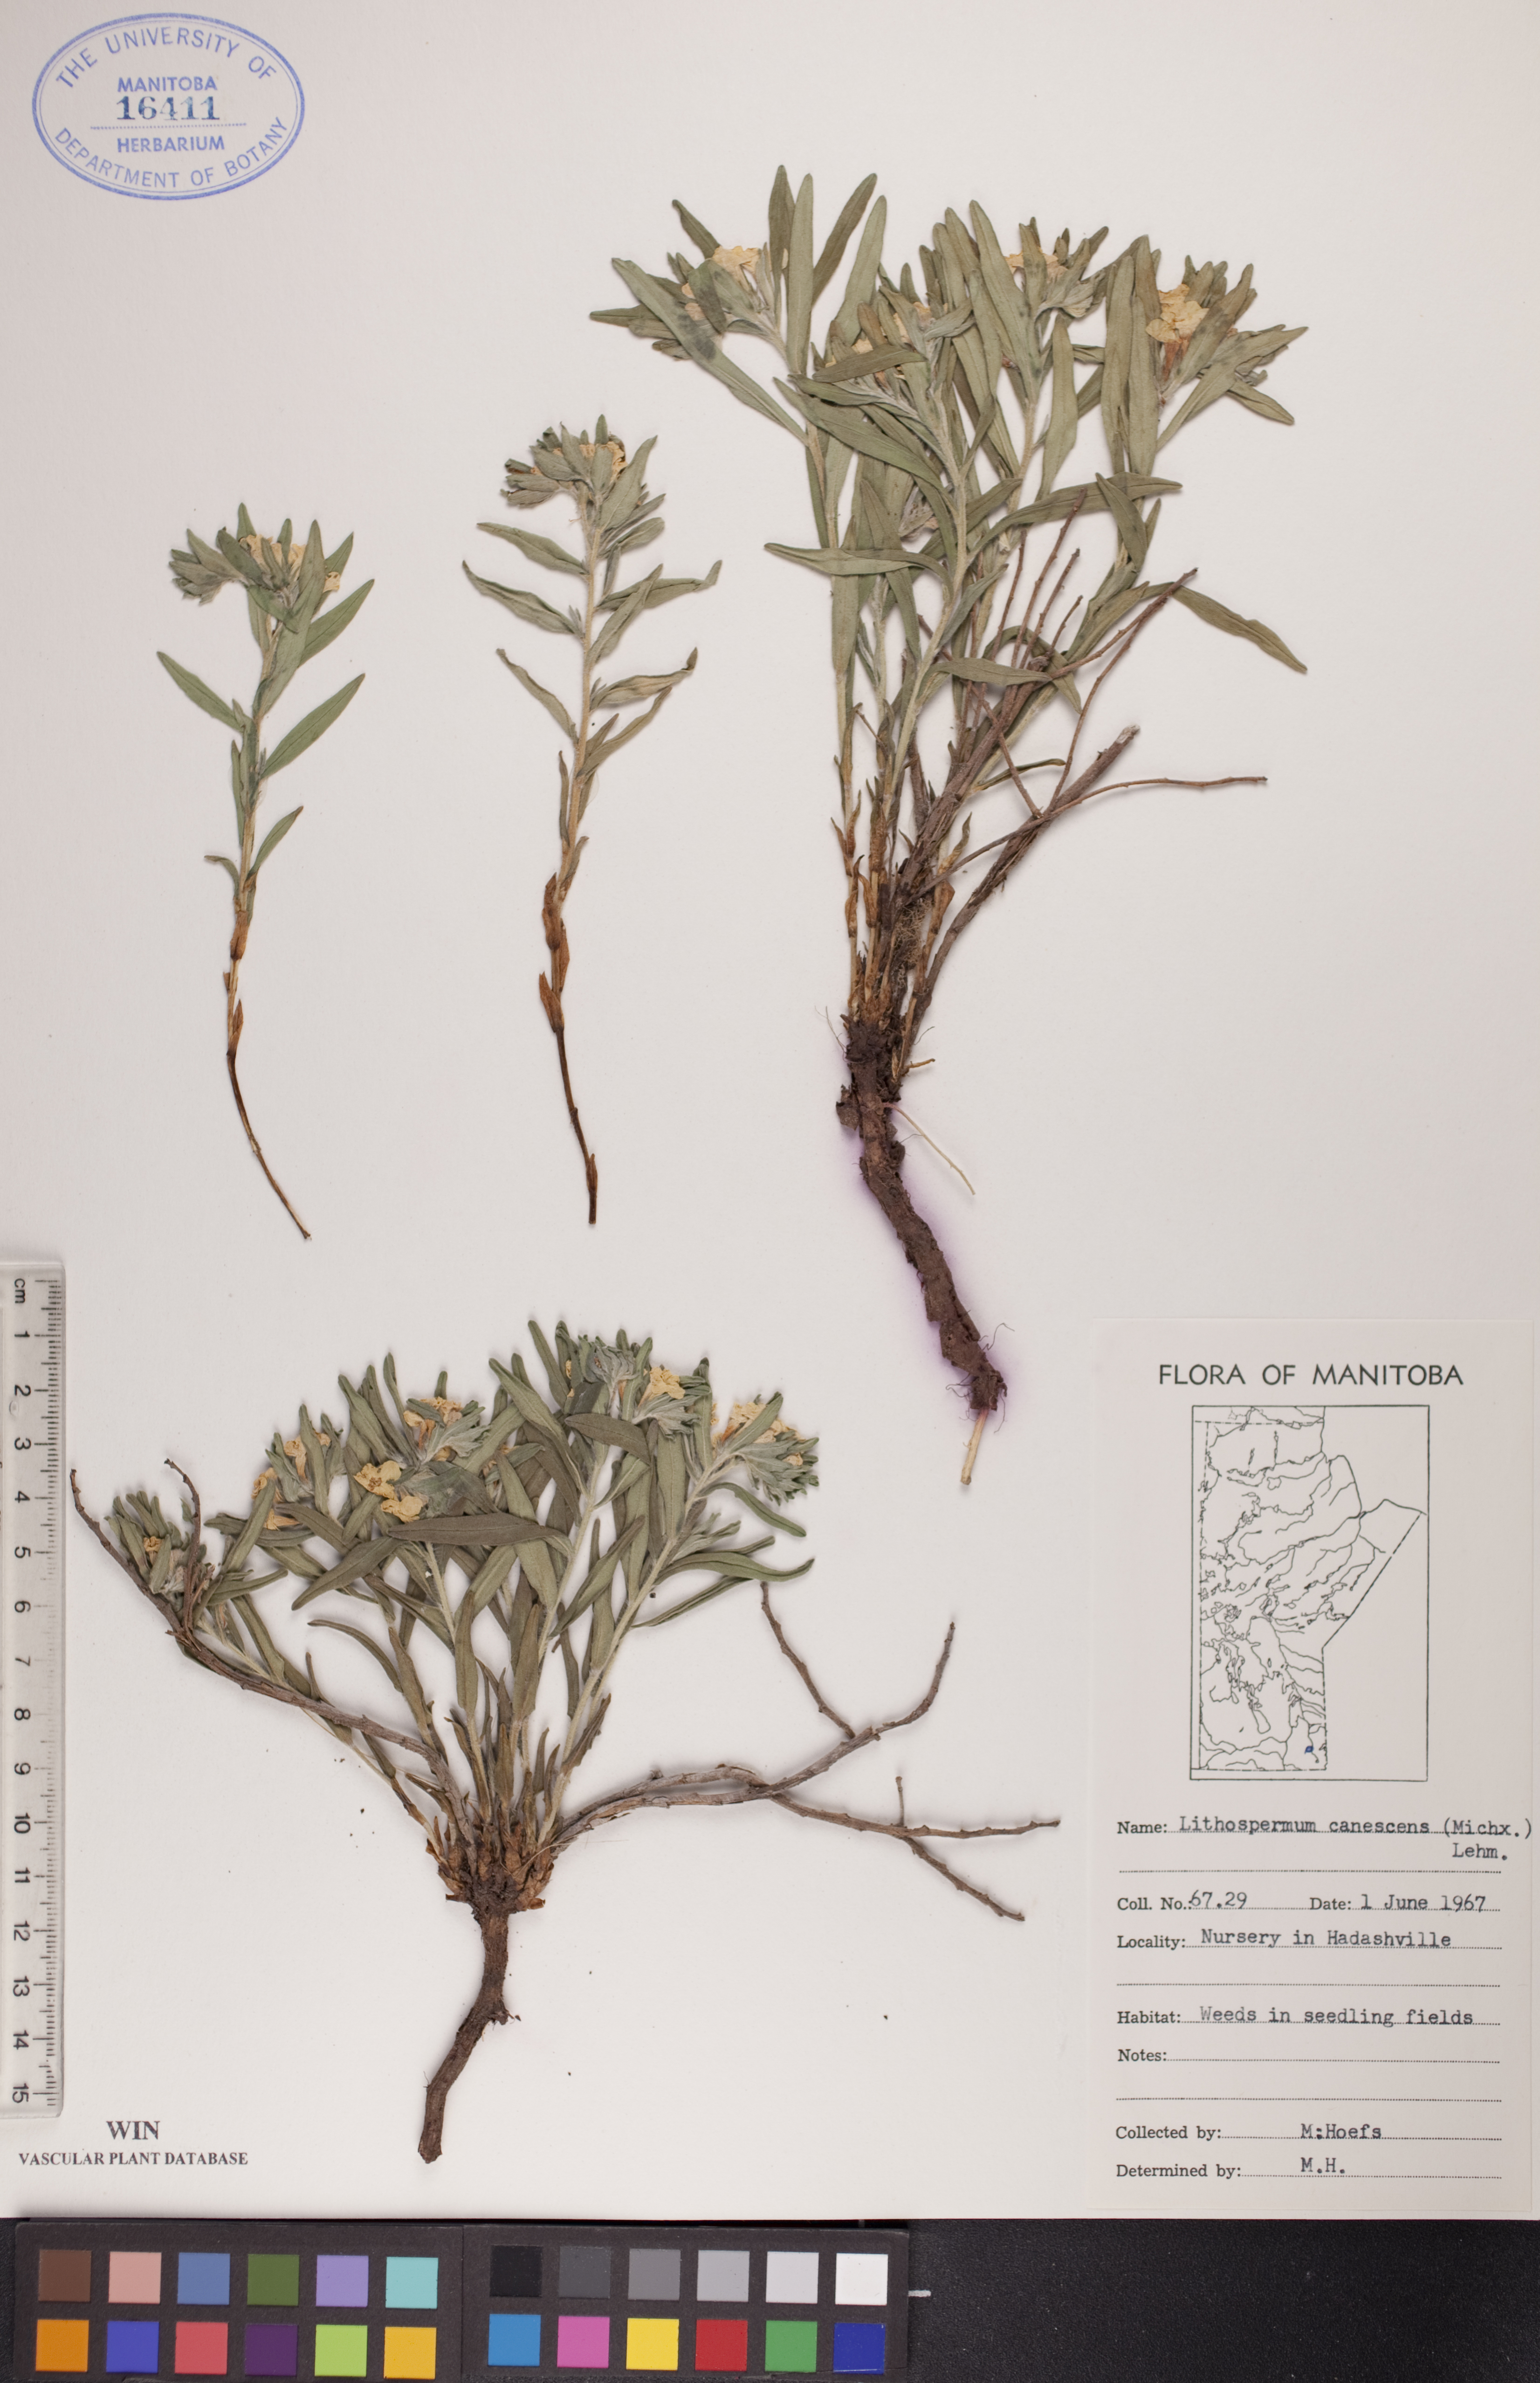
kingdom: Plantae
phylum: Tracheophyta
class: Magnoliopsida
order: Boraginales
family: Boraginaceae
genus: Lithospermum
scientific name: Lithospermum canescens
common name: Hoary puccoon
